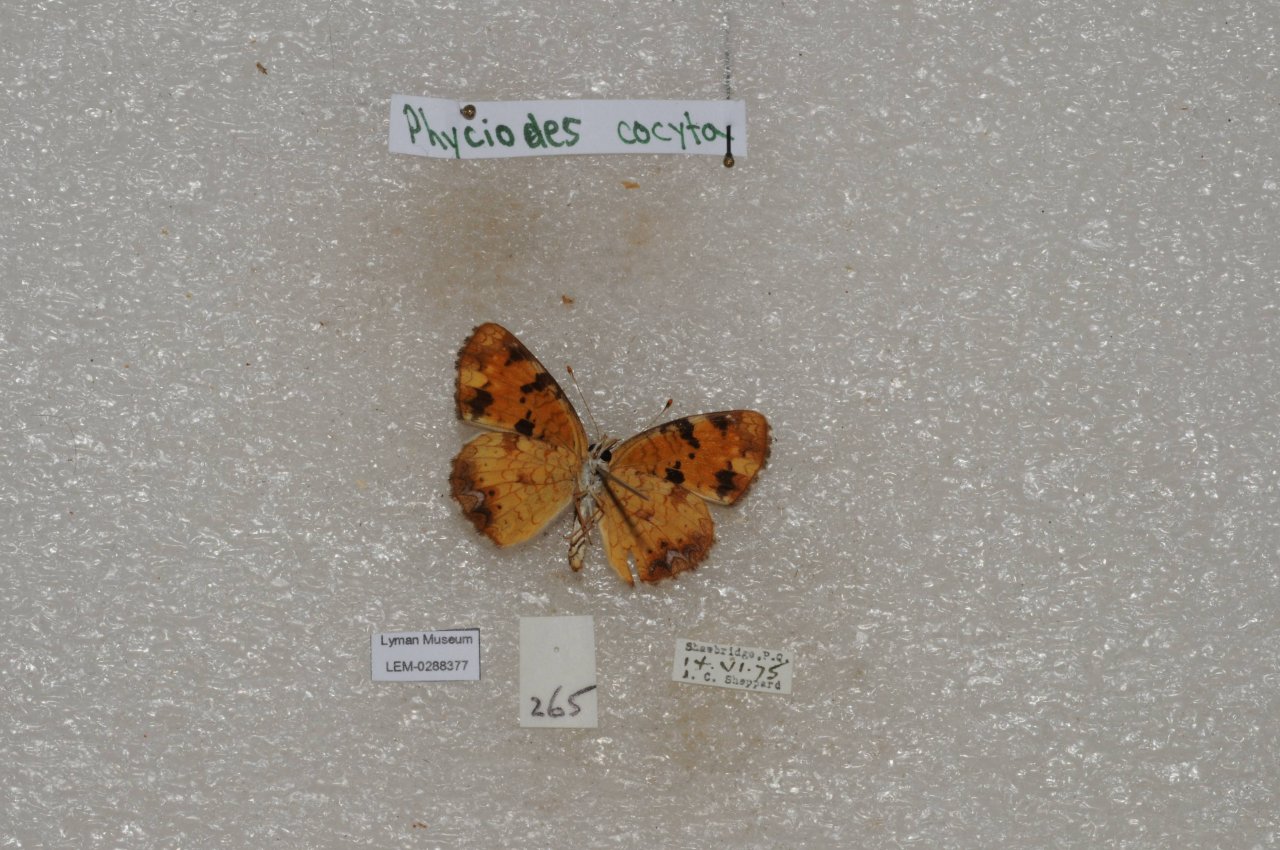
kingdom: Animalia
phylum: Arthropoda
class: Insecta
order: Lepidoptera
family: Nymphalidae
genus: Phyciodes
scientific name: Phyciodes tharos
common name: Northern Crescent
